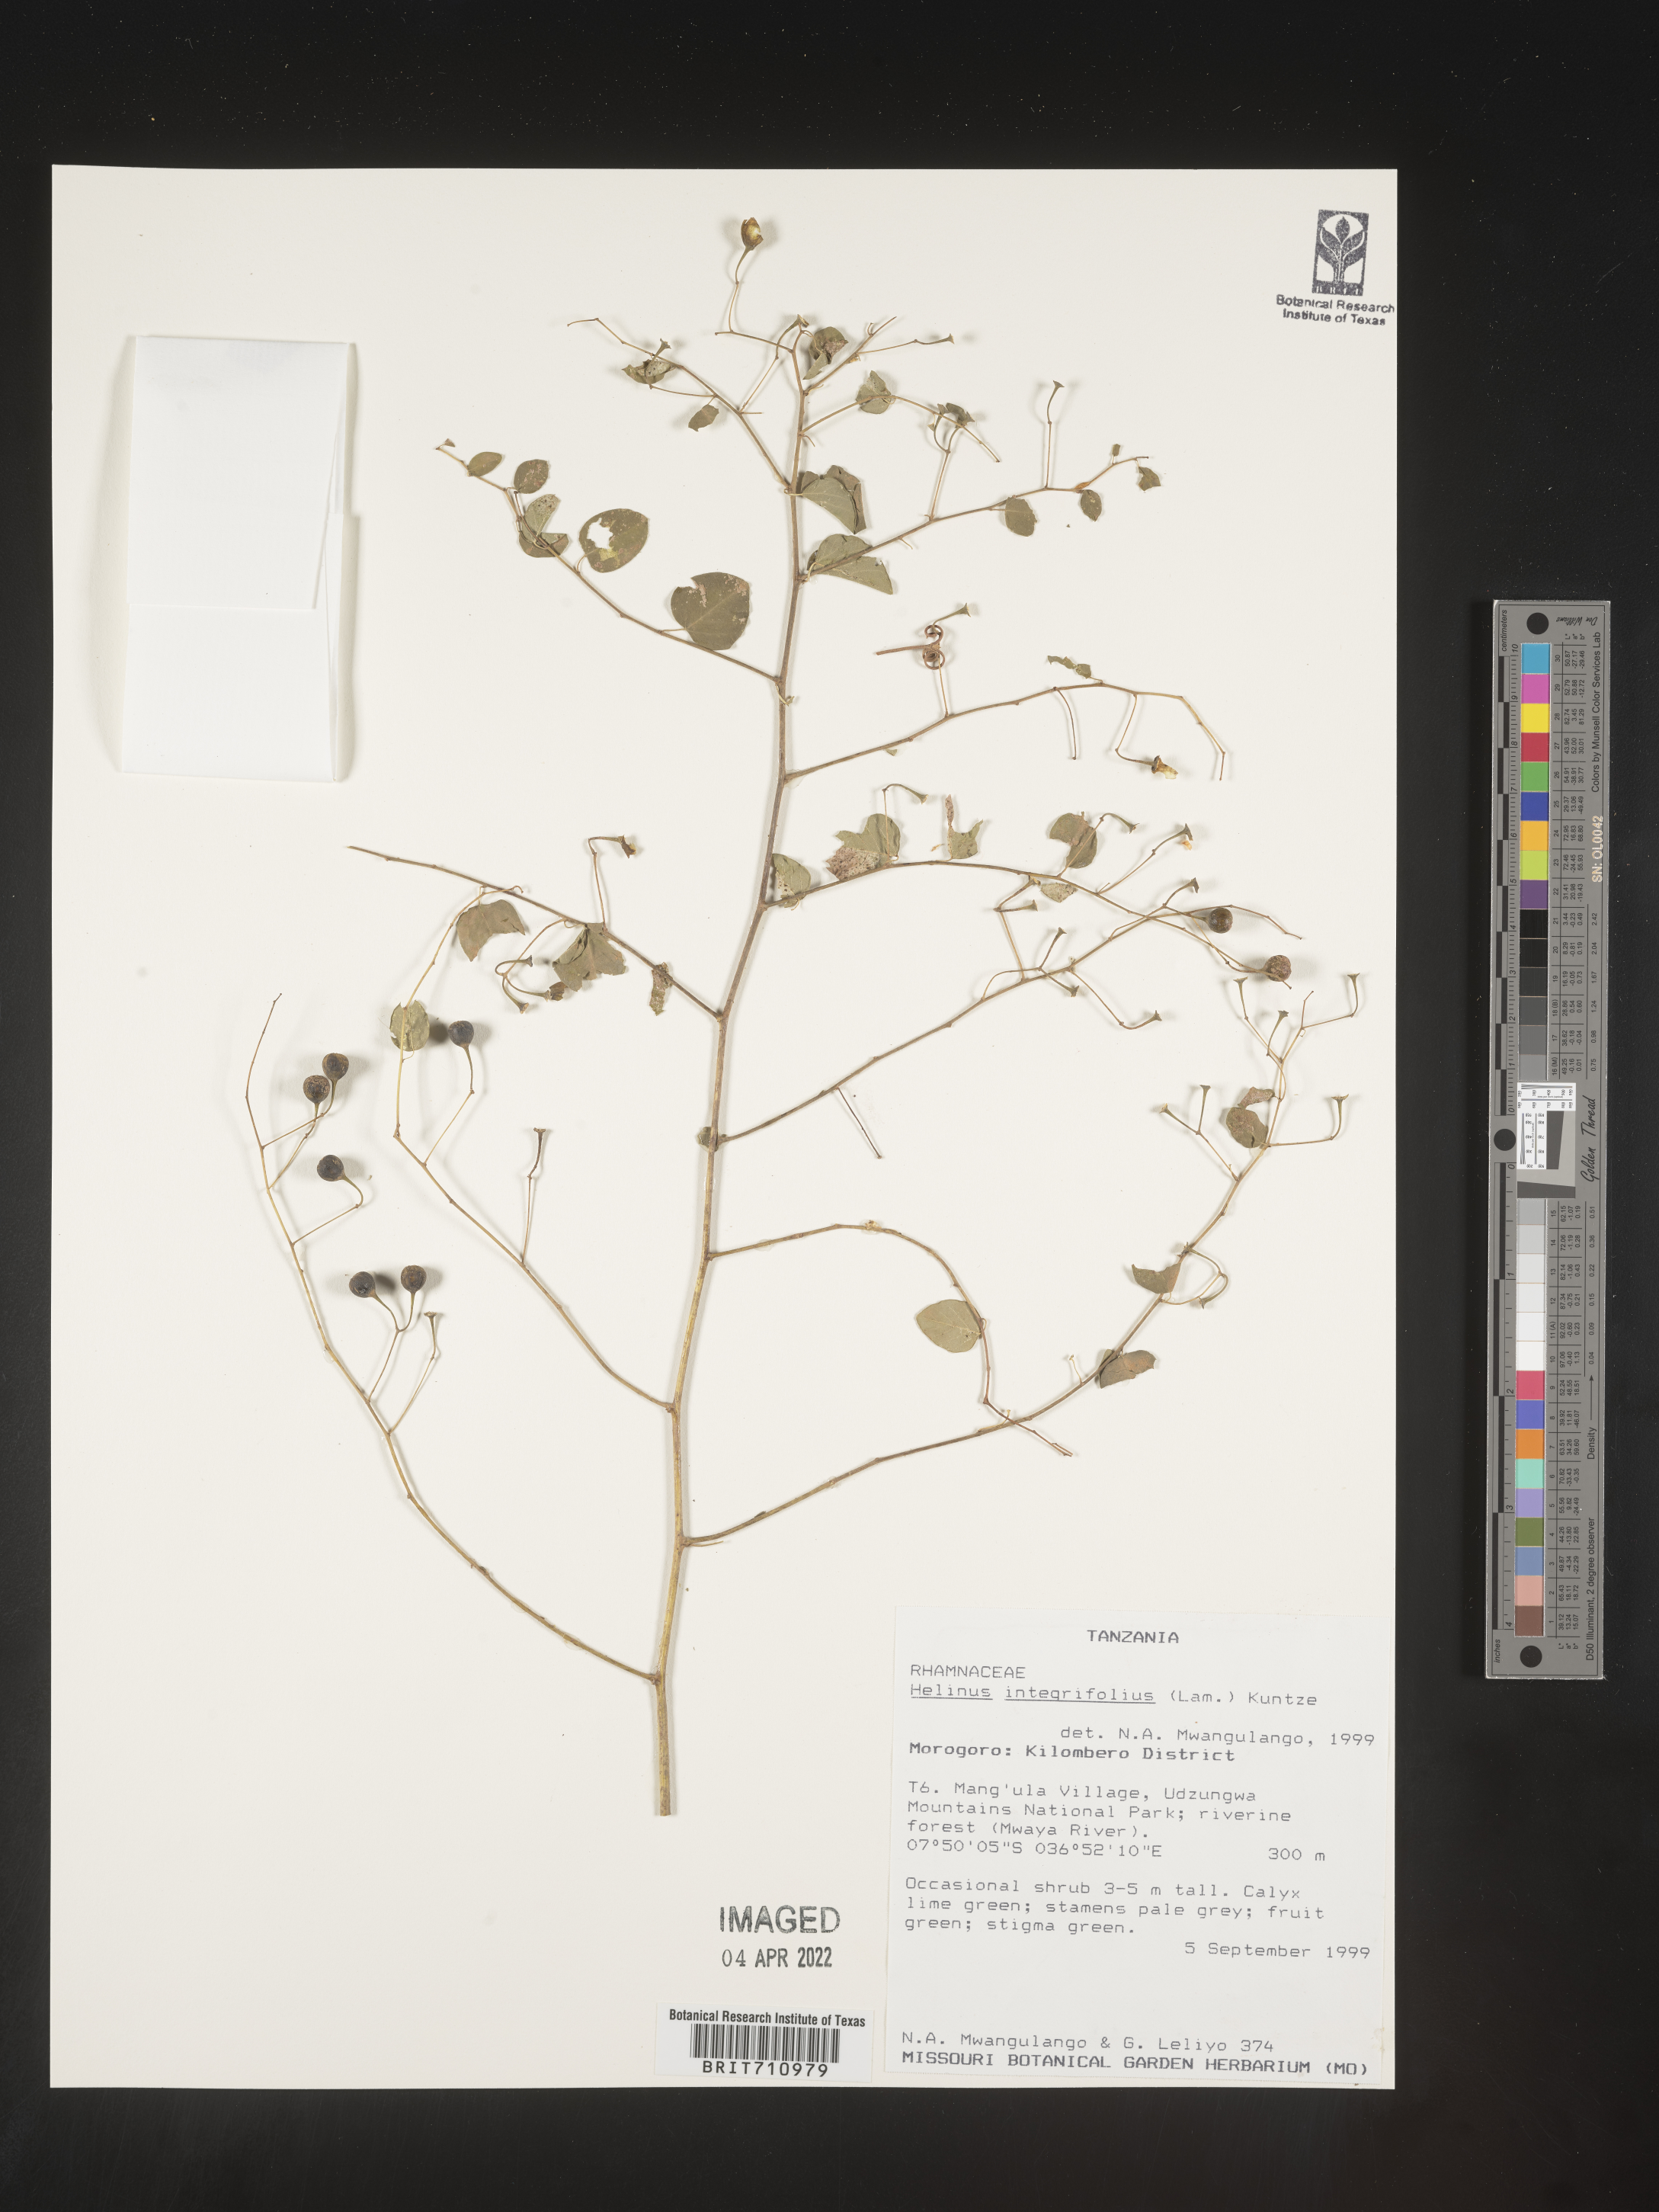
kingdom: Plantae
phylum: Tracheophyta
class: Magnoliopsida
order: Rosales
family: Rhamnaceae
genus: Helinus
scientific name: Helinus
